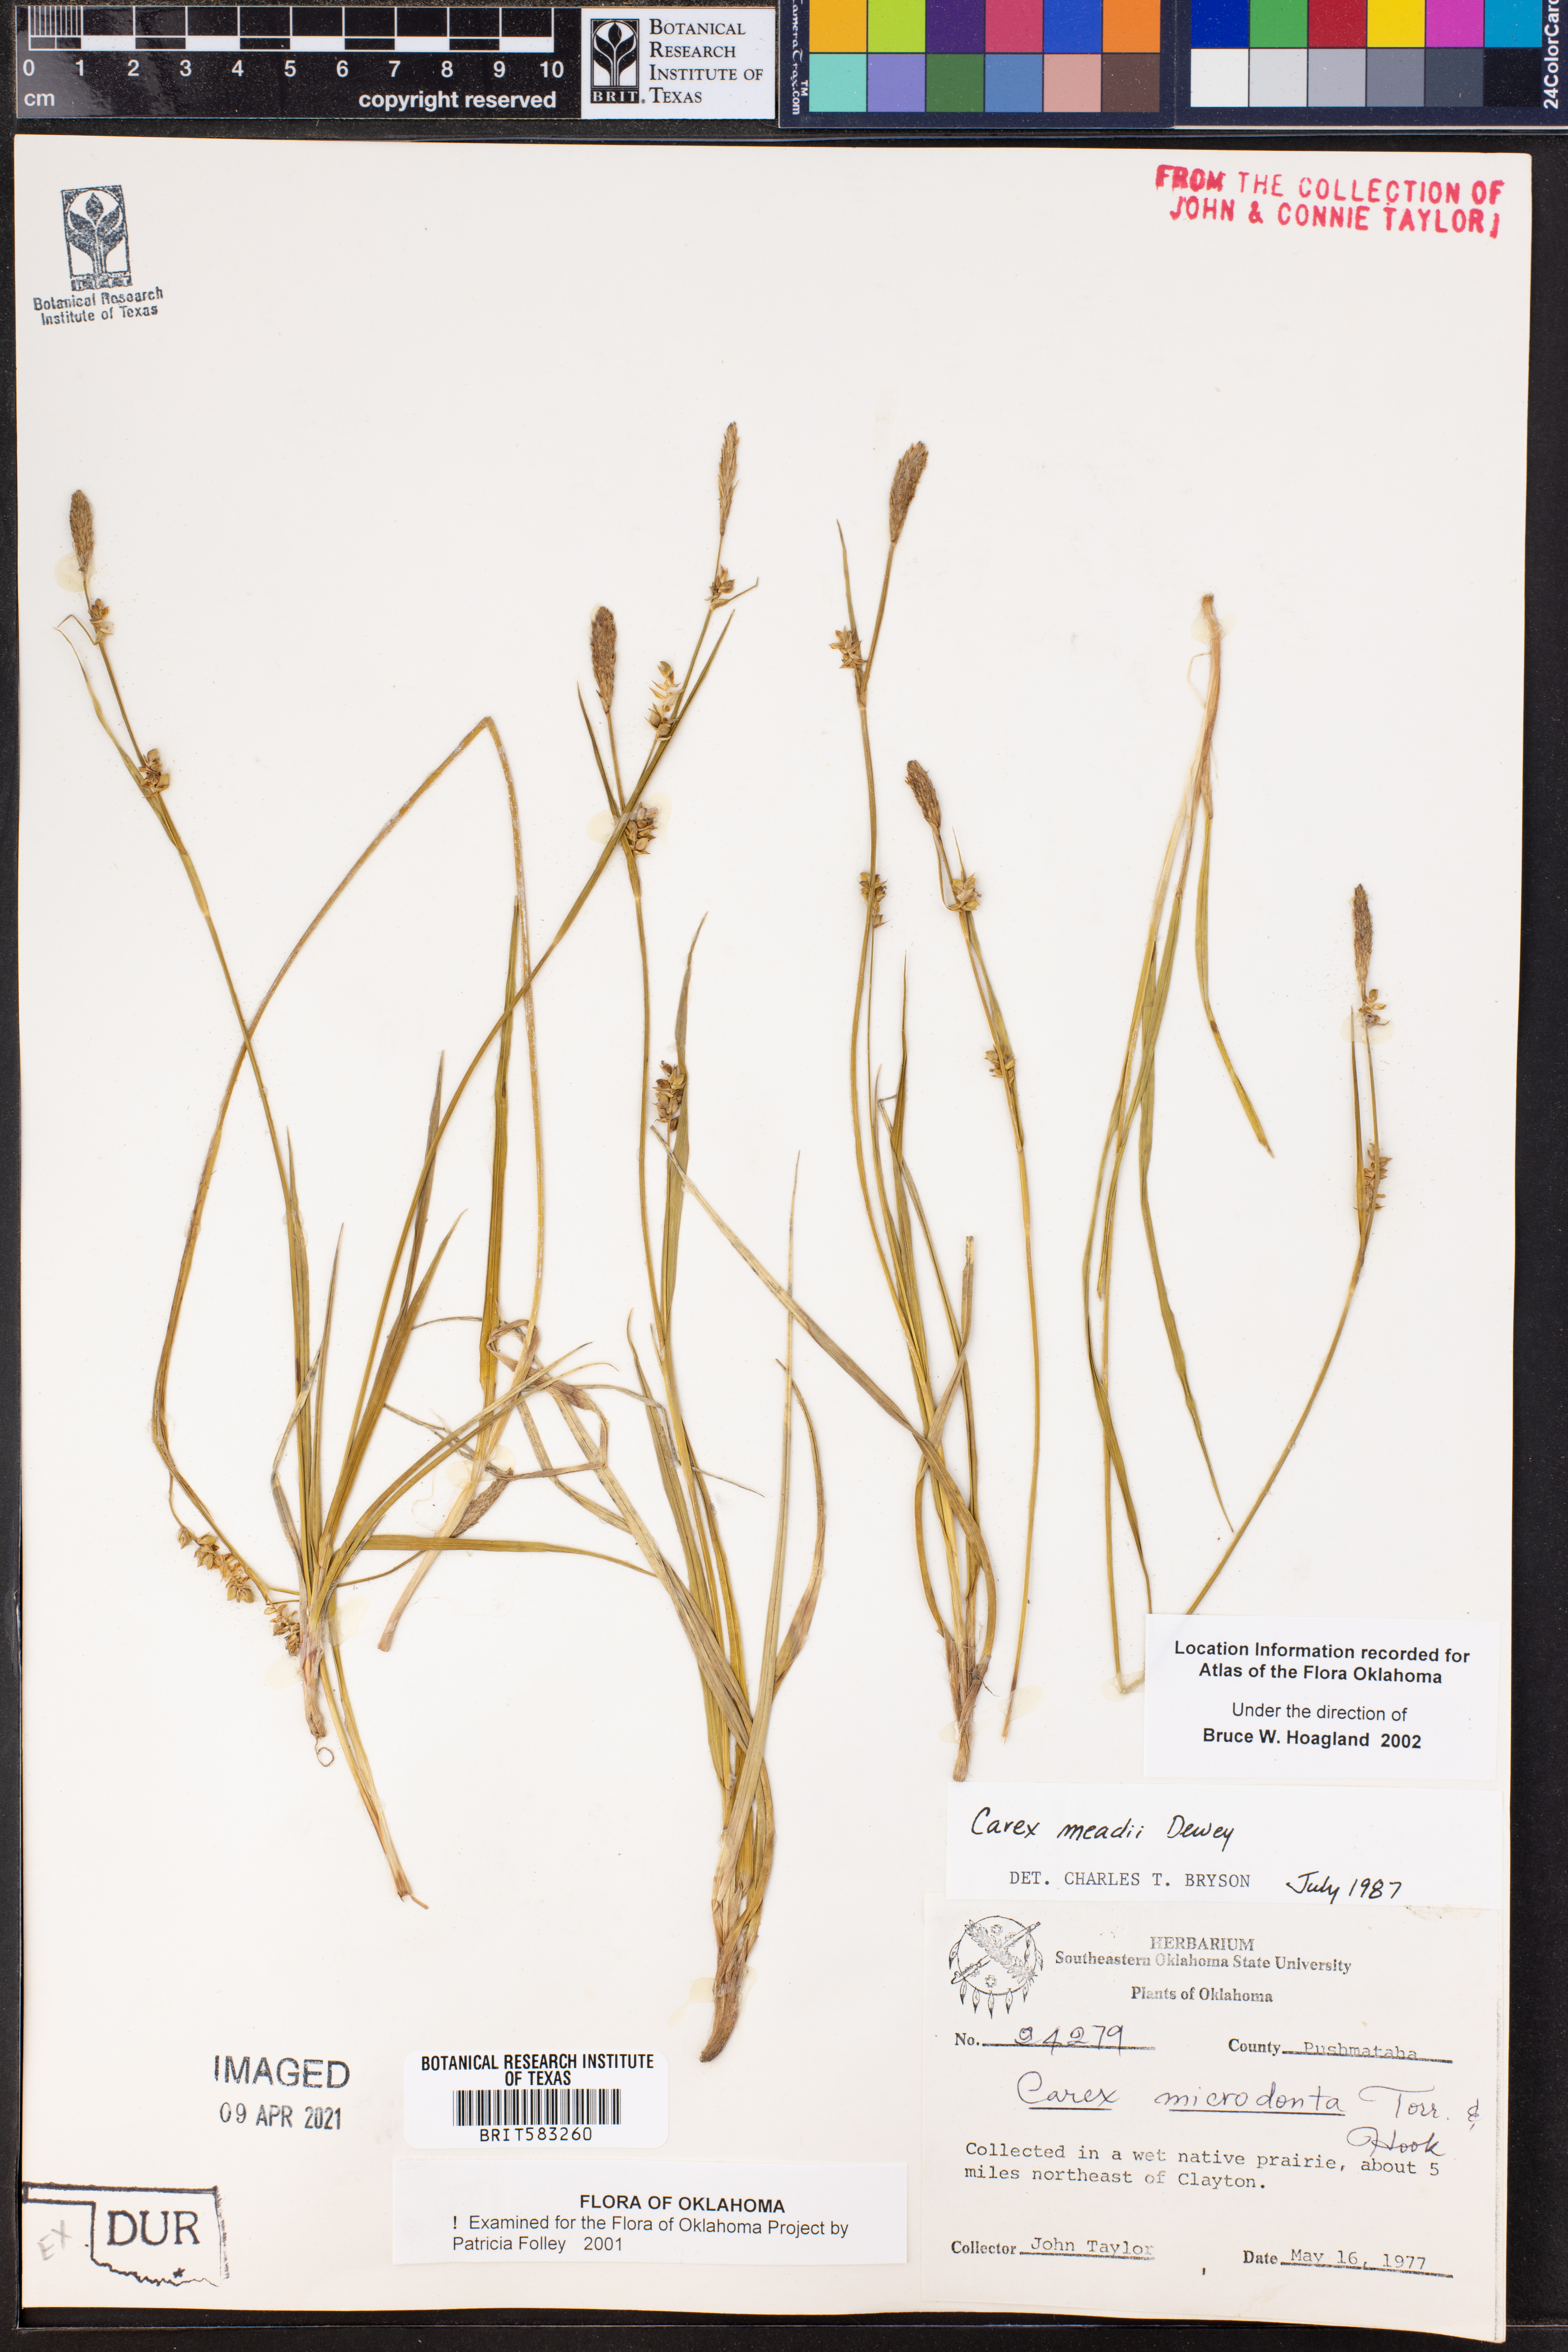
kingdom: Plantae
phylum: Tracheophyta
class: Liliopsida
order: Poales
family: Cyperaceae
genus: Carex
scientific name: Carex meadii
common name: Mead's sedge
